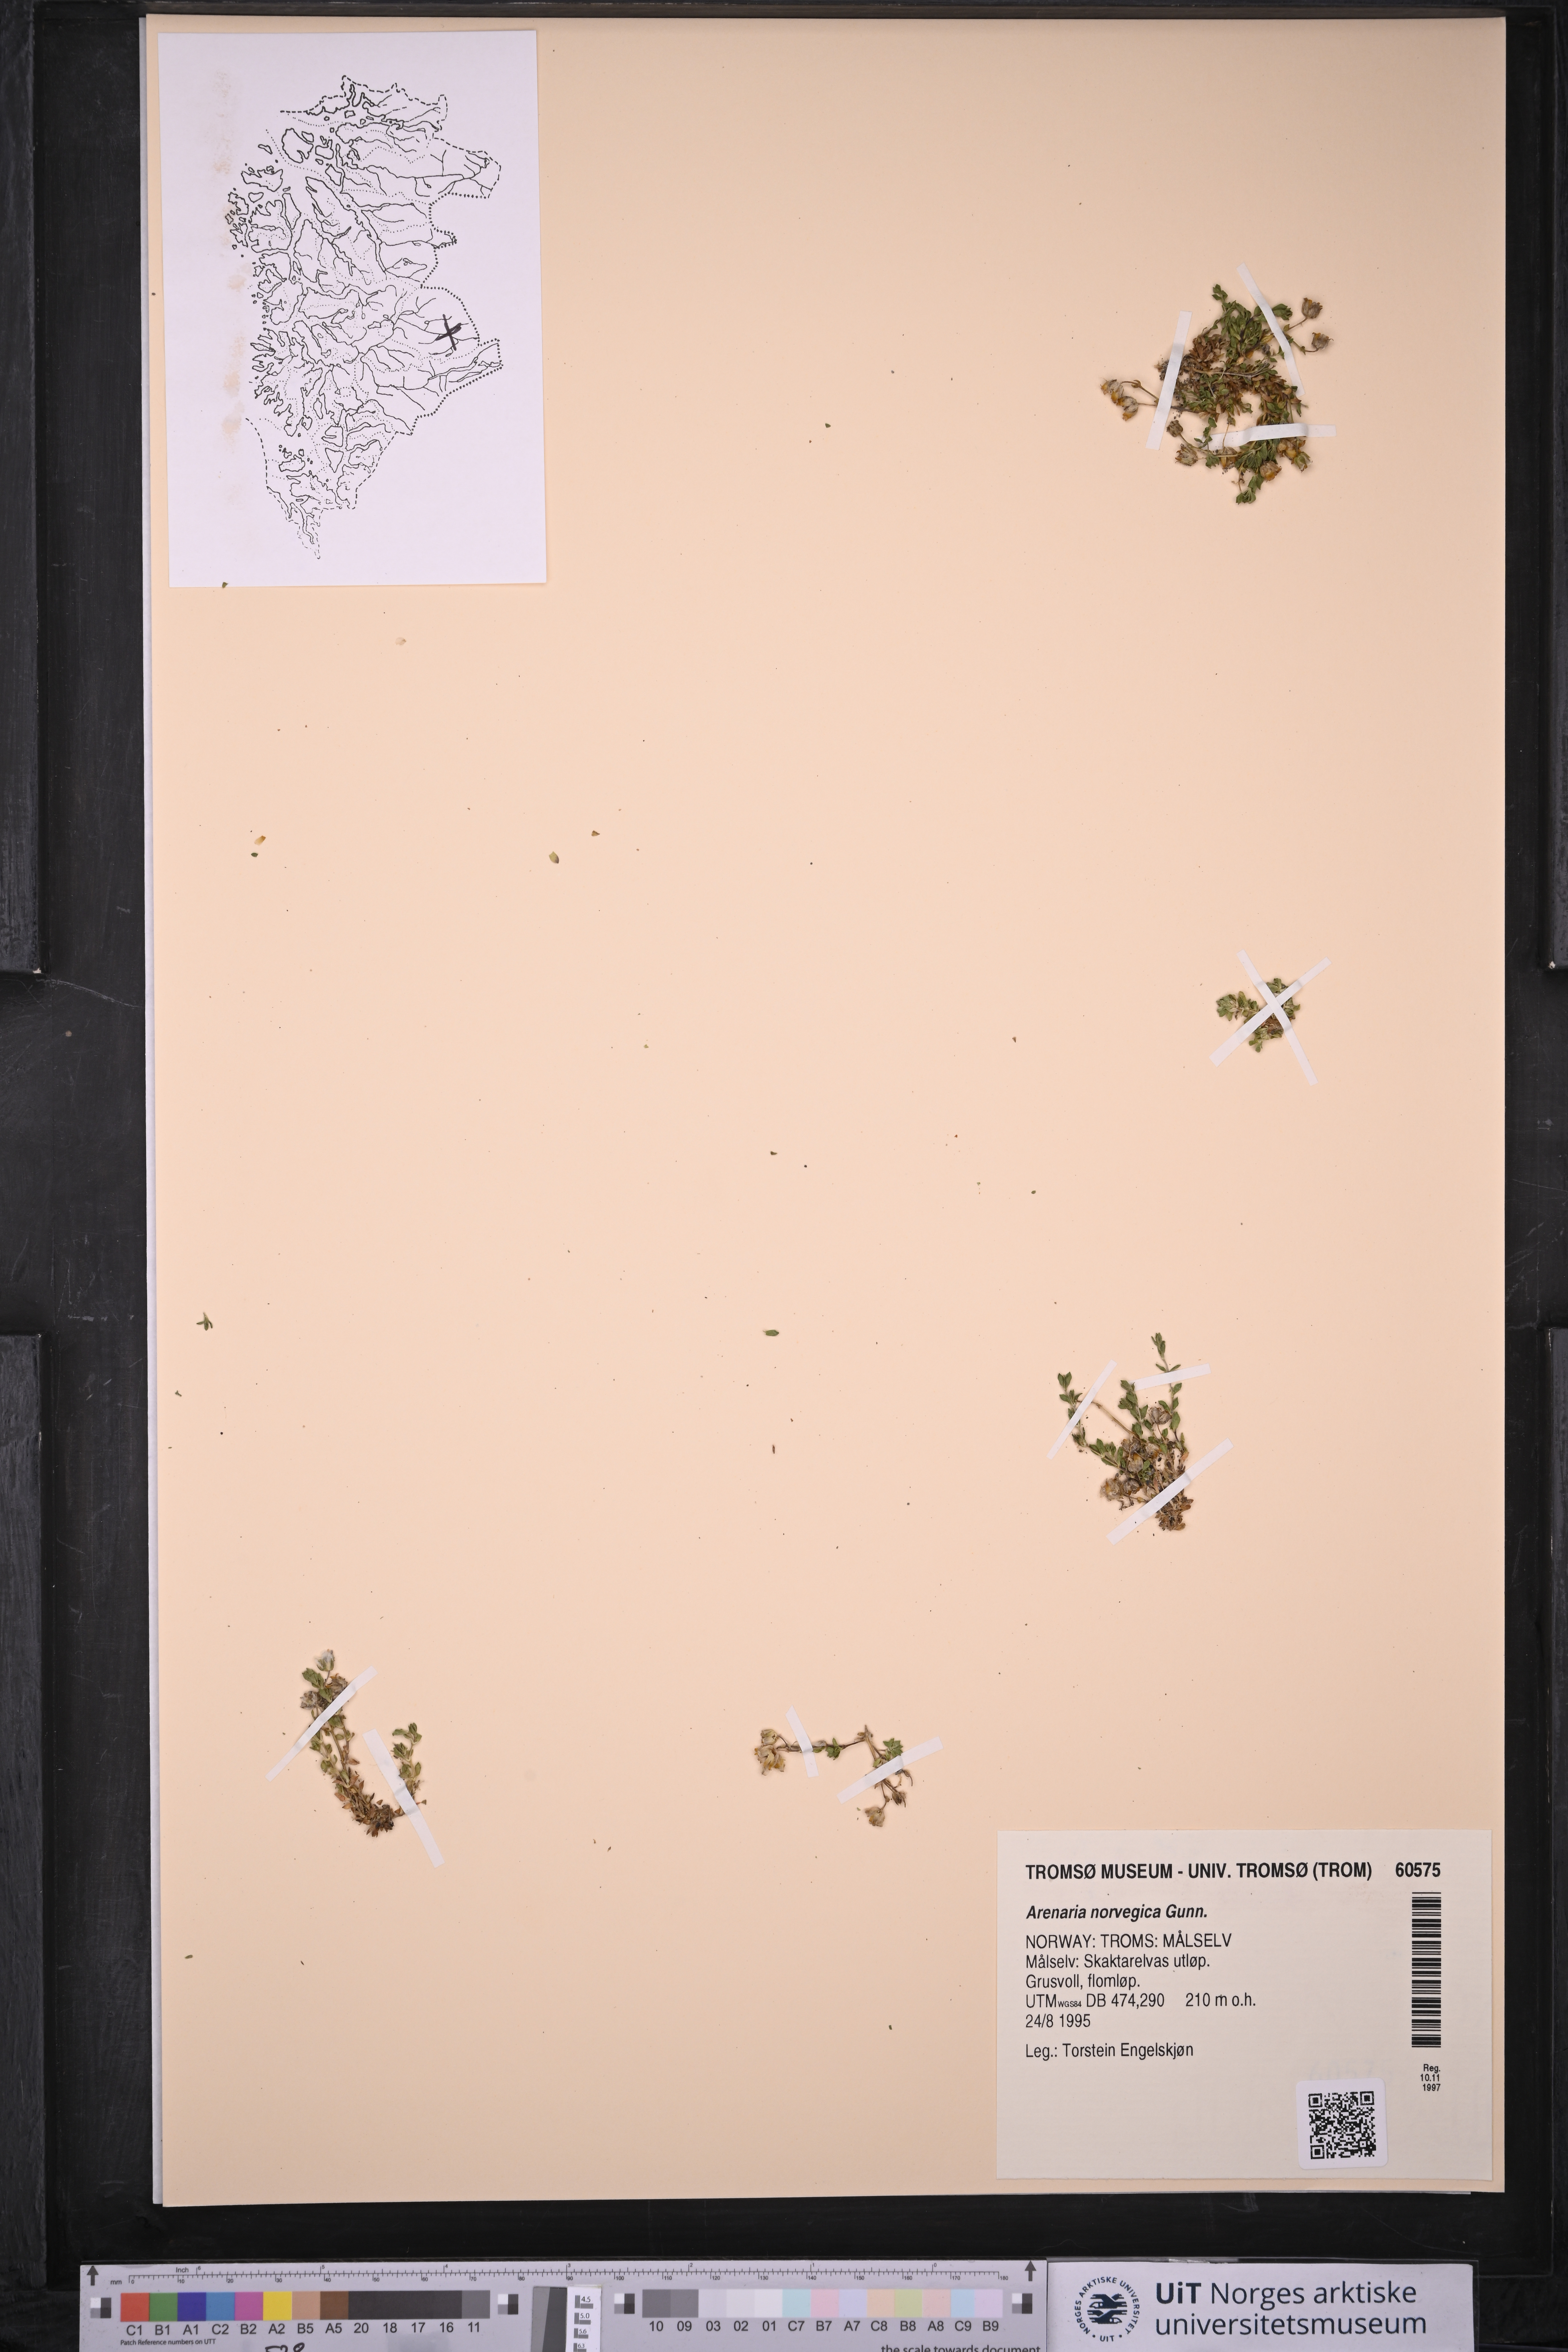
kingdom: Plantae
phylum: Tracheophyta
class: Magnoliopsida
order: Caryophyllales
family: Caryophyllaceae
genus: Arenaria
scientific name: Arenaria norvegica
